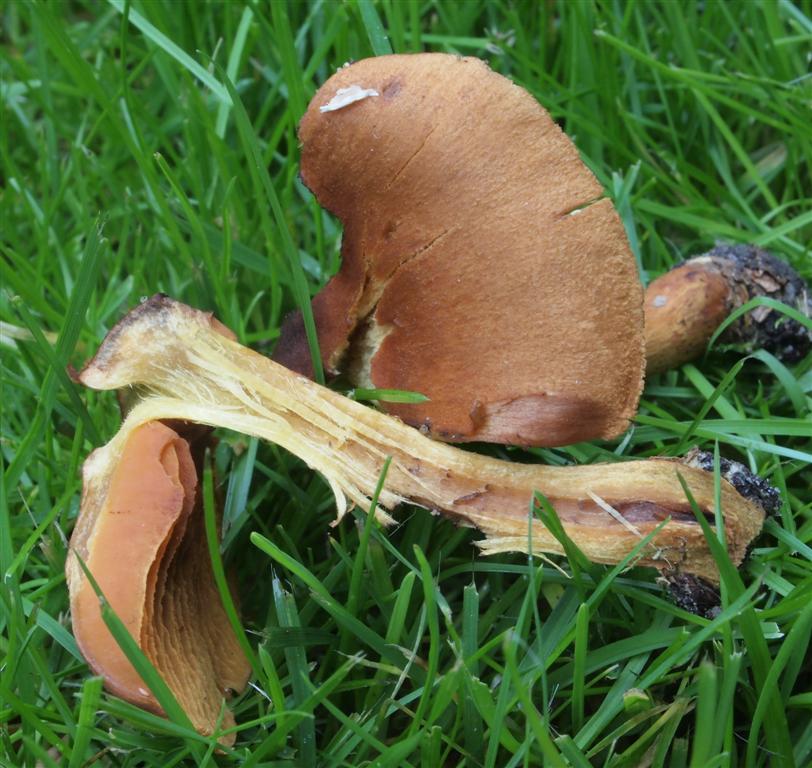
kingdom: Fungi
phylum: Basidiomycota
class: Agaricomycetes
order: Agaricales
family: Cortinariaceae
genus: Cortinarius
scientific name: Cortinarius cinnamomeus
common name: kanel-slørhat
